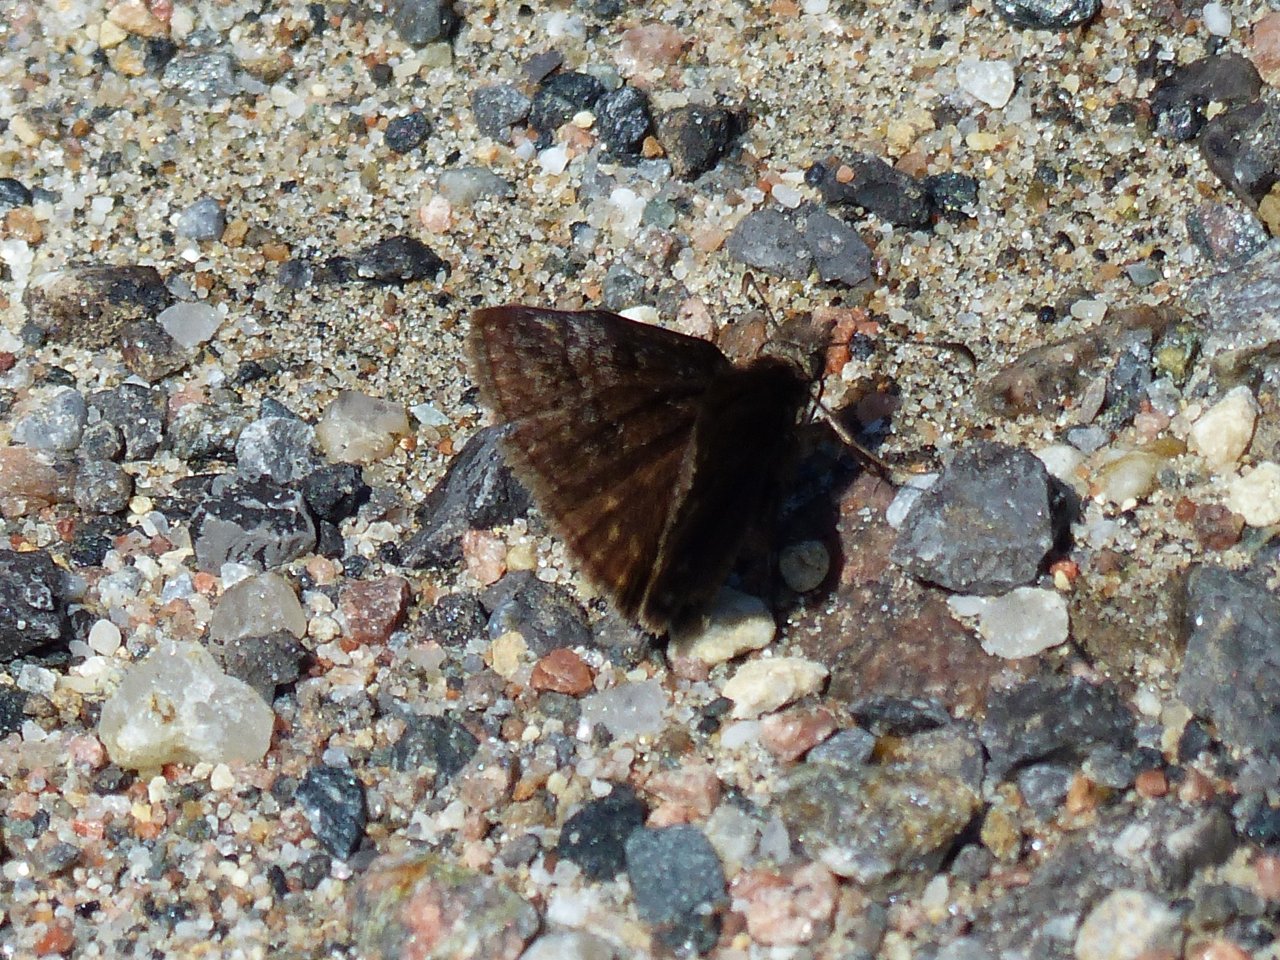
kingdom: Animalia
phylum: Arthropoda
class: Insecta
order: Lepidoptera
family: Hesperiidae
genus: Erynnis
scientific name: Erynnis icelus
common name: Dreamy Duskywing
